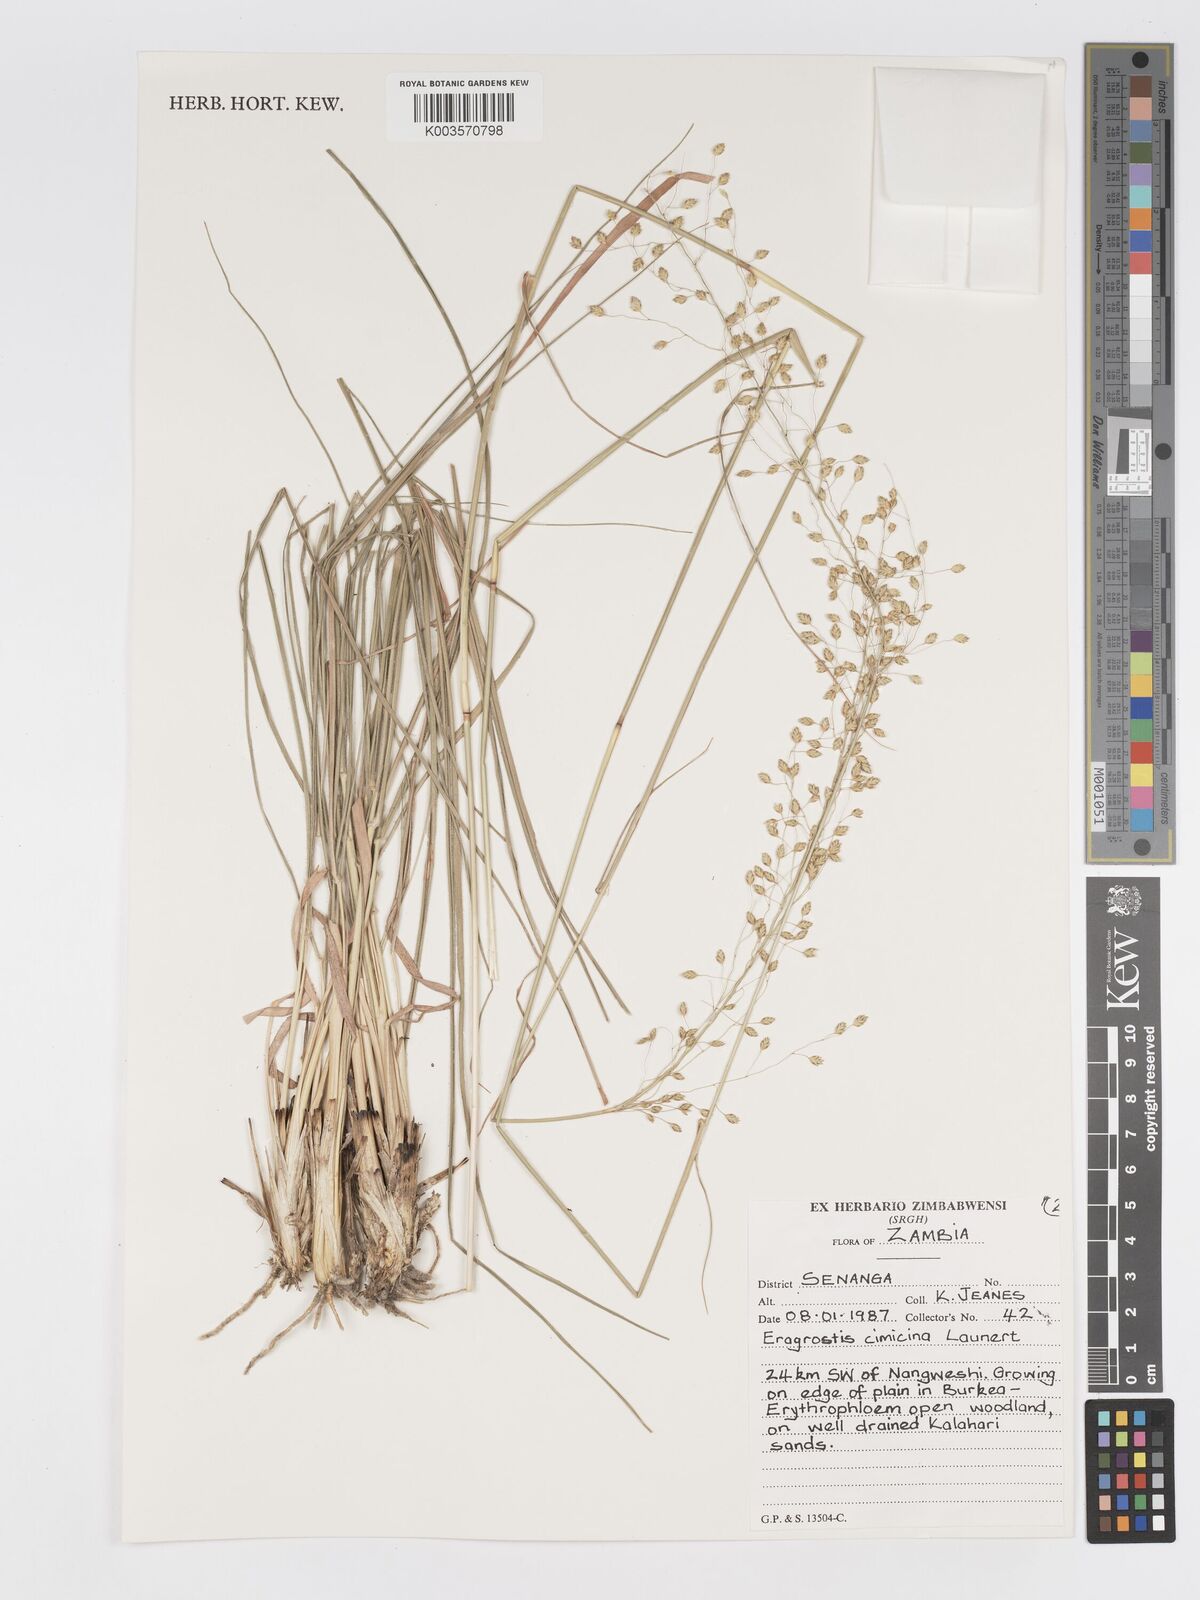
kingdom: Plantae
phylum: Tracheophyta
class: Liliopsida
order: Poales
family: Poaceae
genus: Eragrostis
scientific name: Eragrostis cimicina
